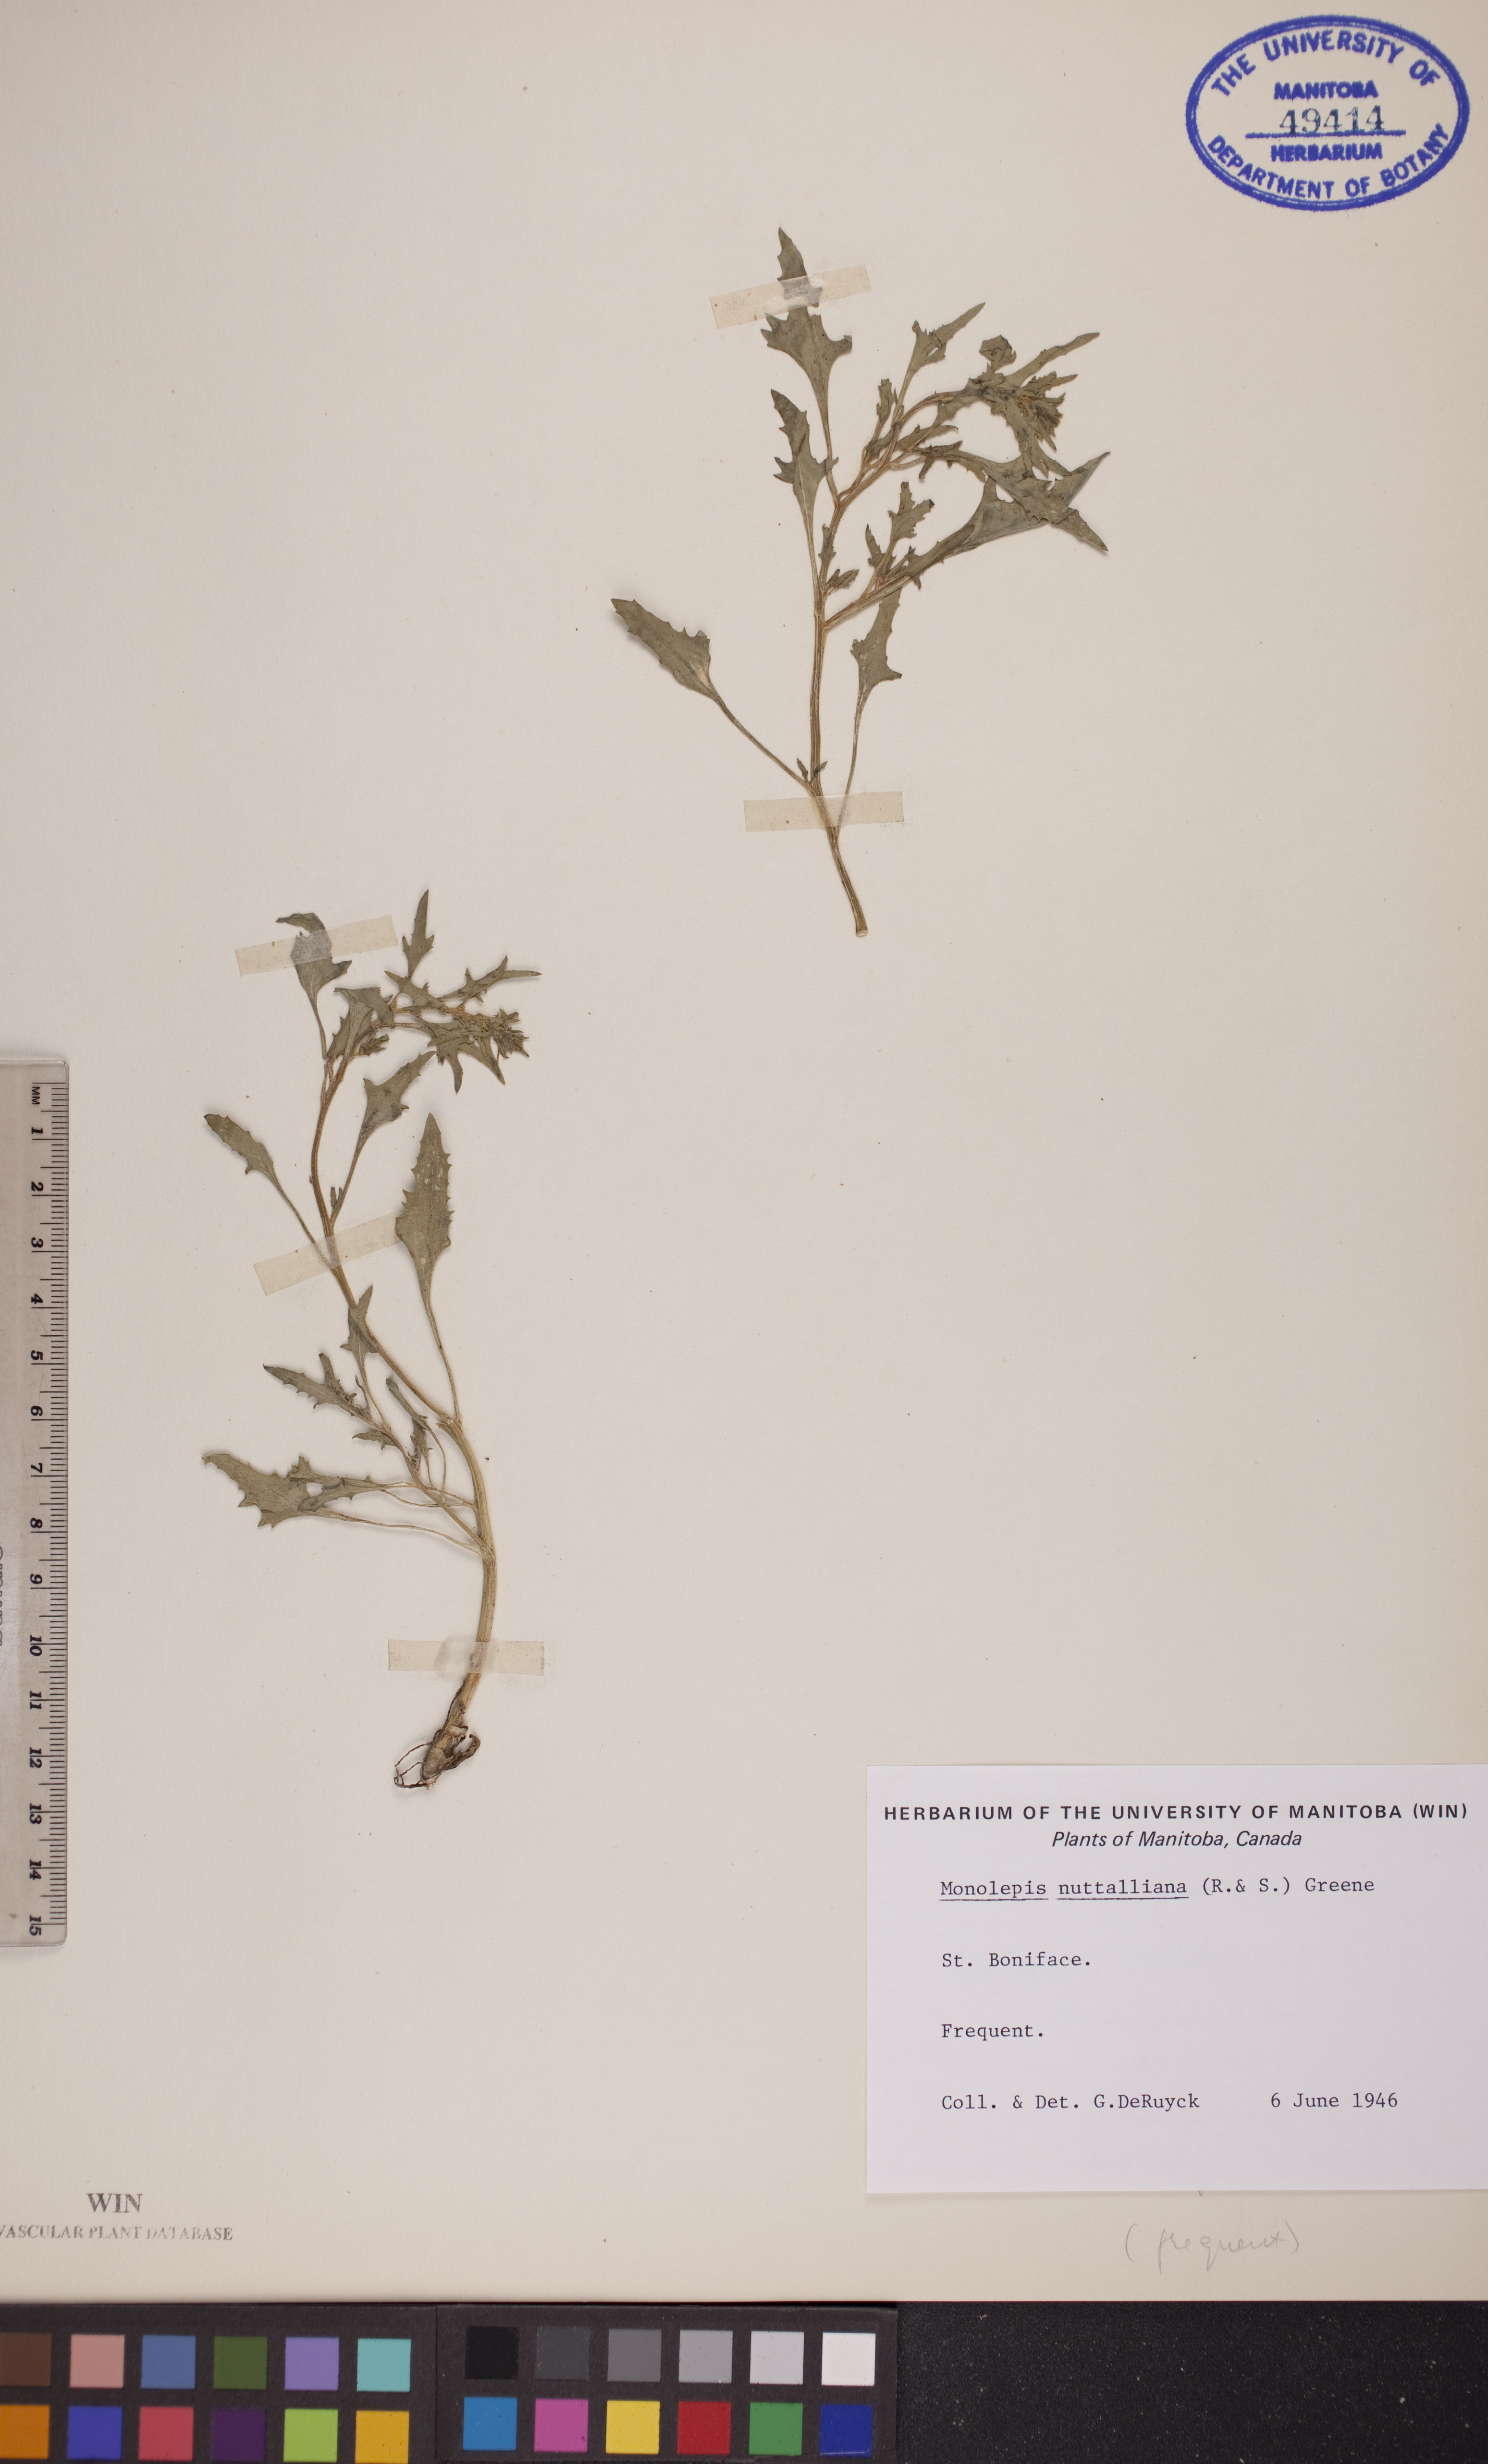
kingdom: Plantae
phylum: Tracheophyta
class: Magnoliopsida
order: Caryophyllales
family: Amaranthaceae
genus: Blitum
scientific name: Blitum nuttallianum
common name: Poverty-weed
